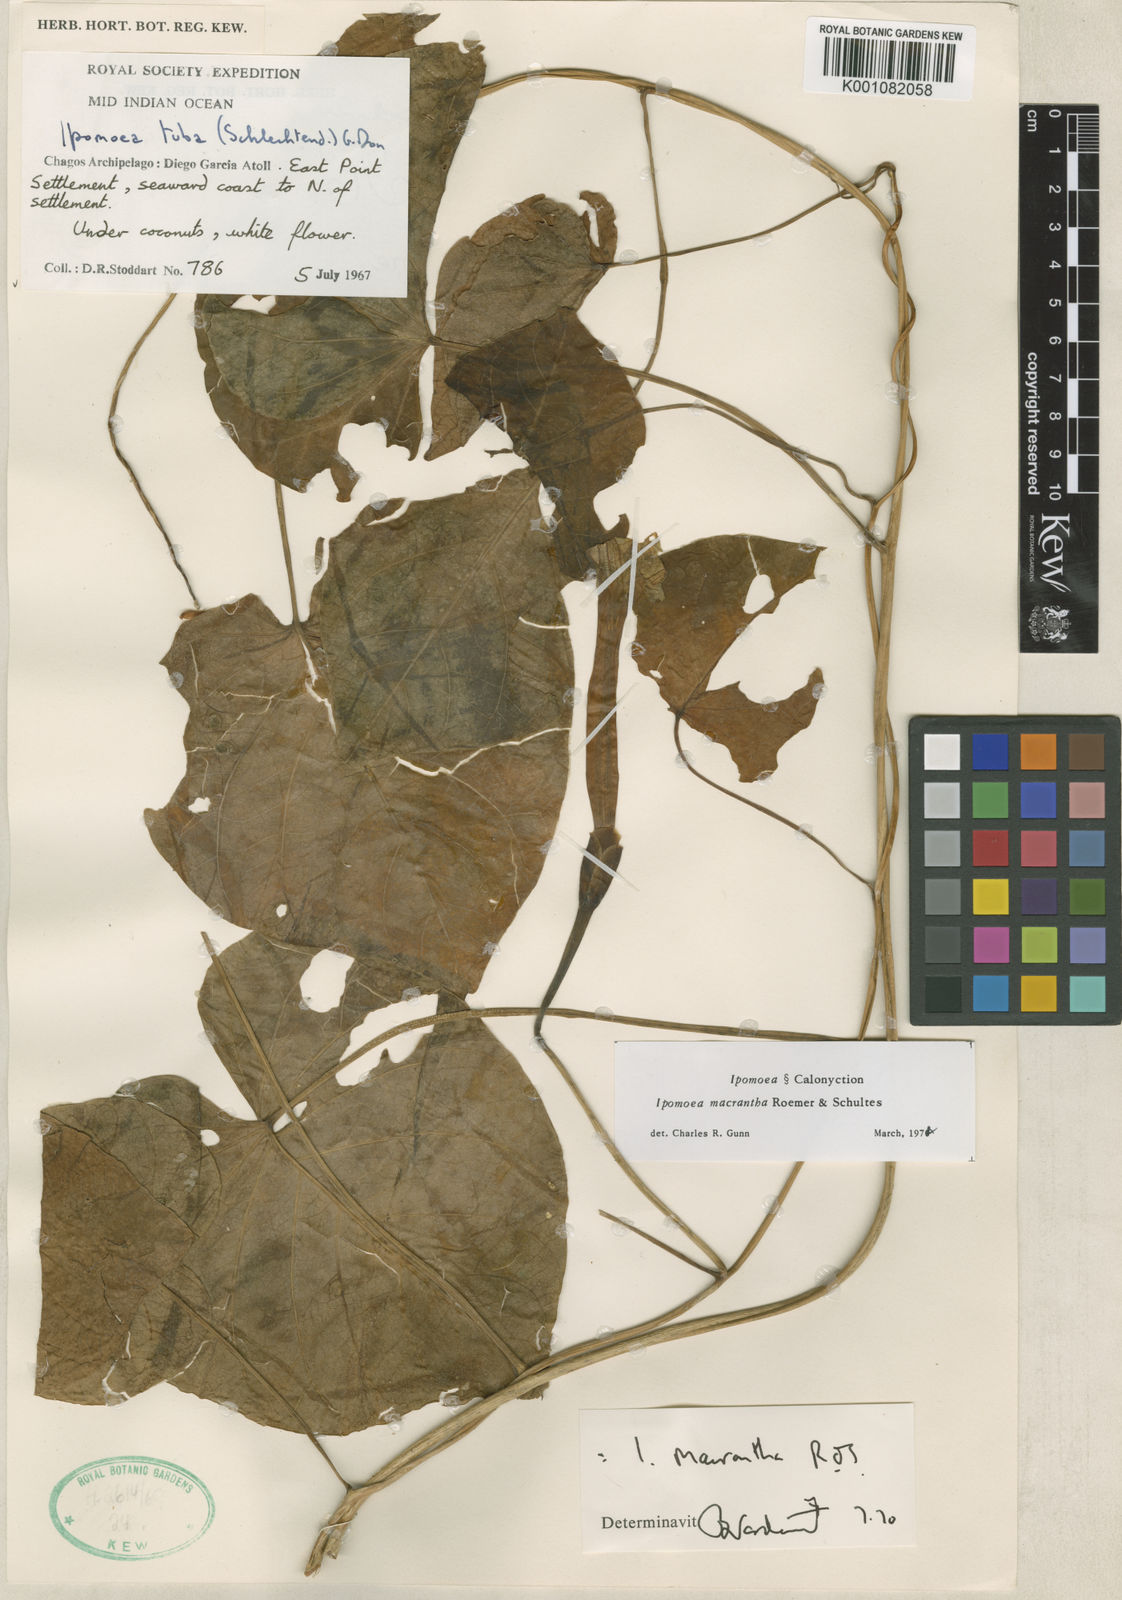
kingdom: Plantae
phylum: Tracheophyta
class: Magnoliopsida
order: Solanales
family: Convolvulaceae
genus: Ipomoea
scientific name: Ipomoea violacea
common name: Beach moonflower
